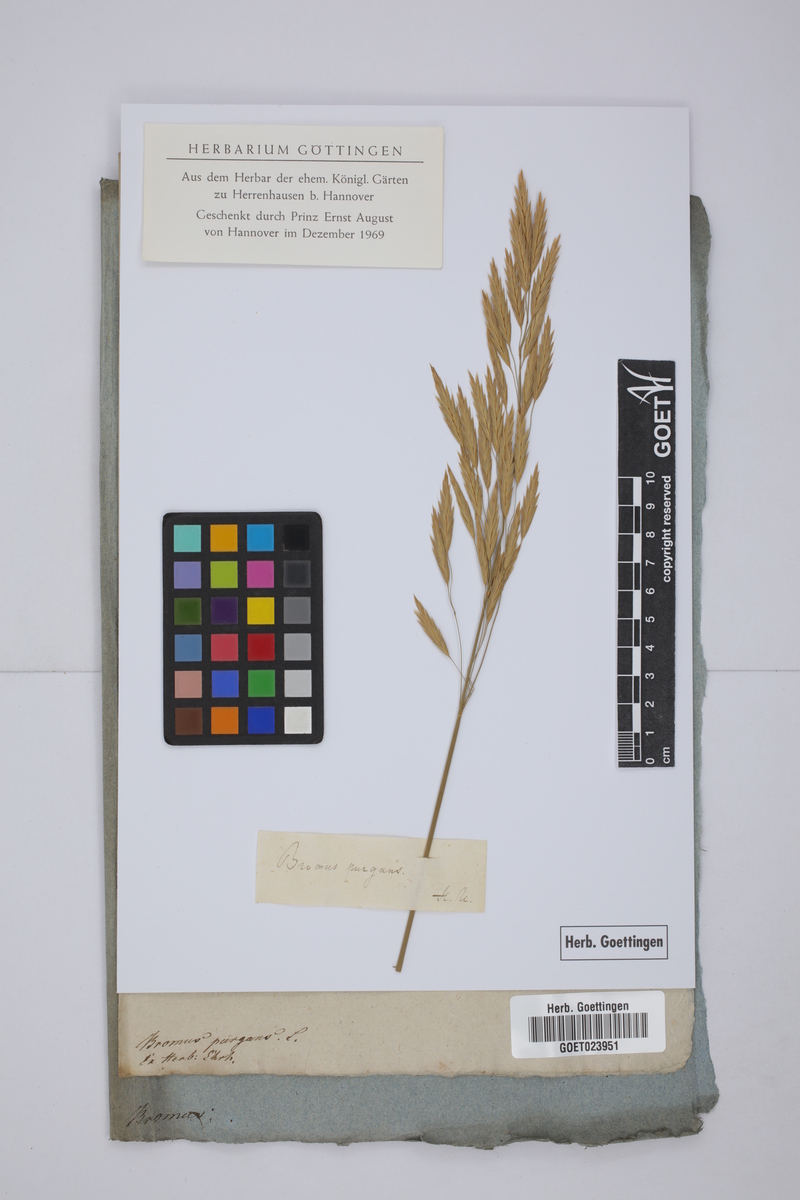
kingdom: Plantae
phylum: Tracheophyta
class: Liliopsida
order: Poales
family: Poaceae
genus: Bromus
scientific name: Bromus kalmii
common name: Kalm brome
